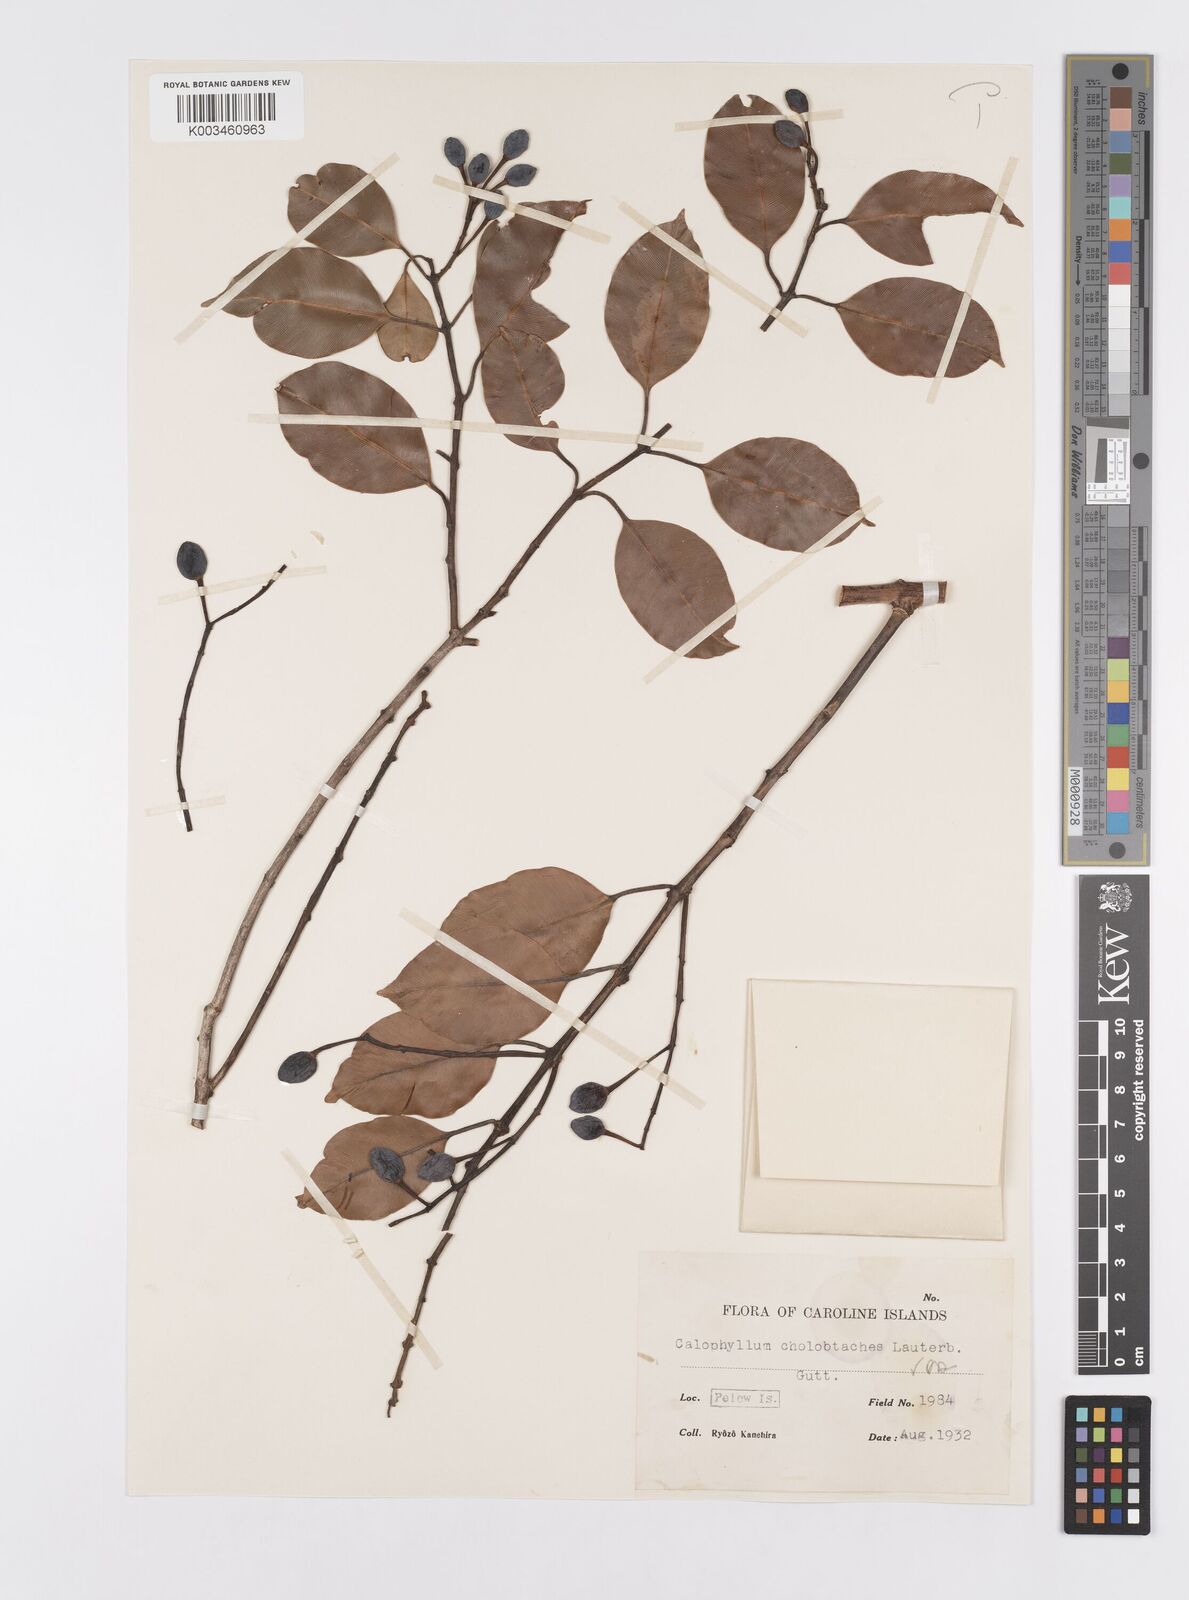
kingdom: Plantae
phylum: Tracheophyta
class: Magnoliopsida
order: Malpighiales
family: Calophyllaceae
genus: Calophyllum
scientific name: Calophyllum soulattri
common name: Bitangoor boonot
